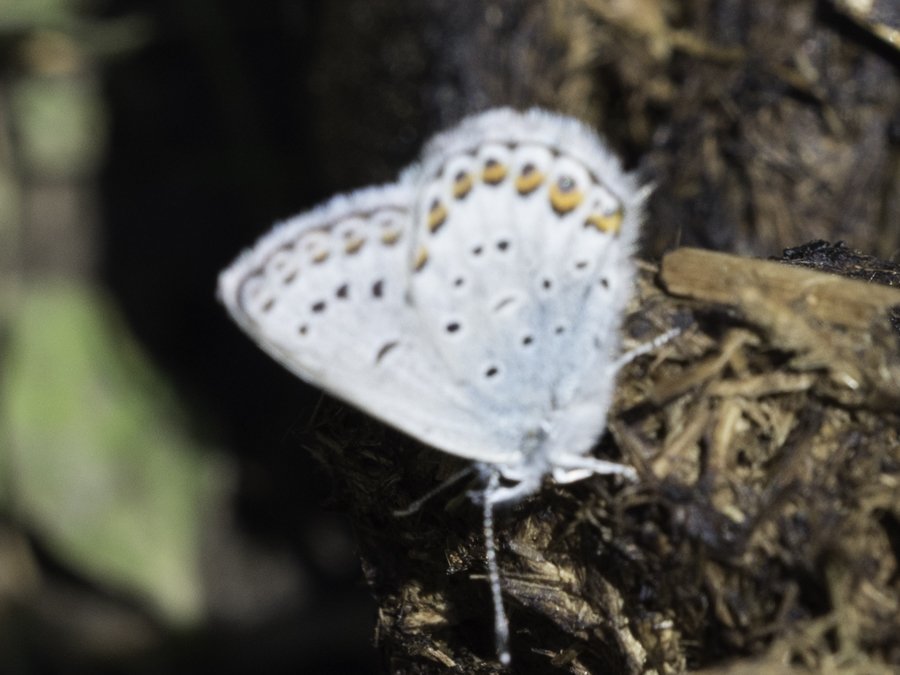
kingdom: Animalia
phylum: Arthropoda
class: Insecta
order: Lepidoptera
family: Lycaenidae
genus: Lycaeides
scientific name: Lycaeides idas
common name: Northern Blue
